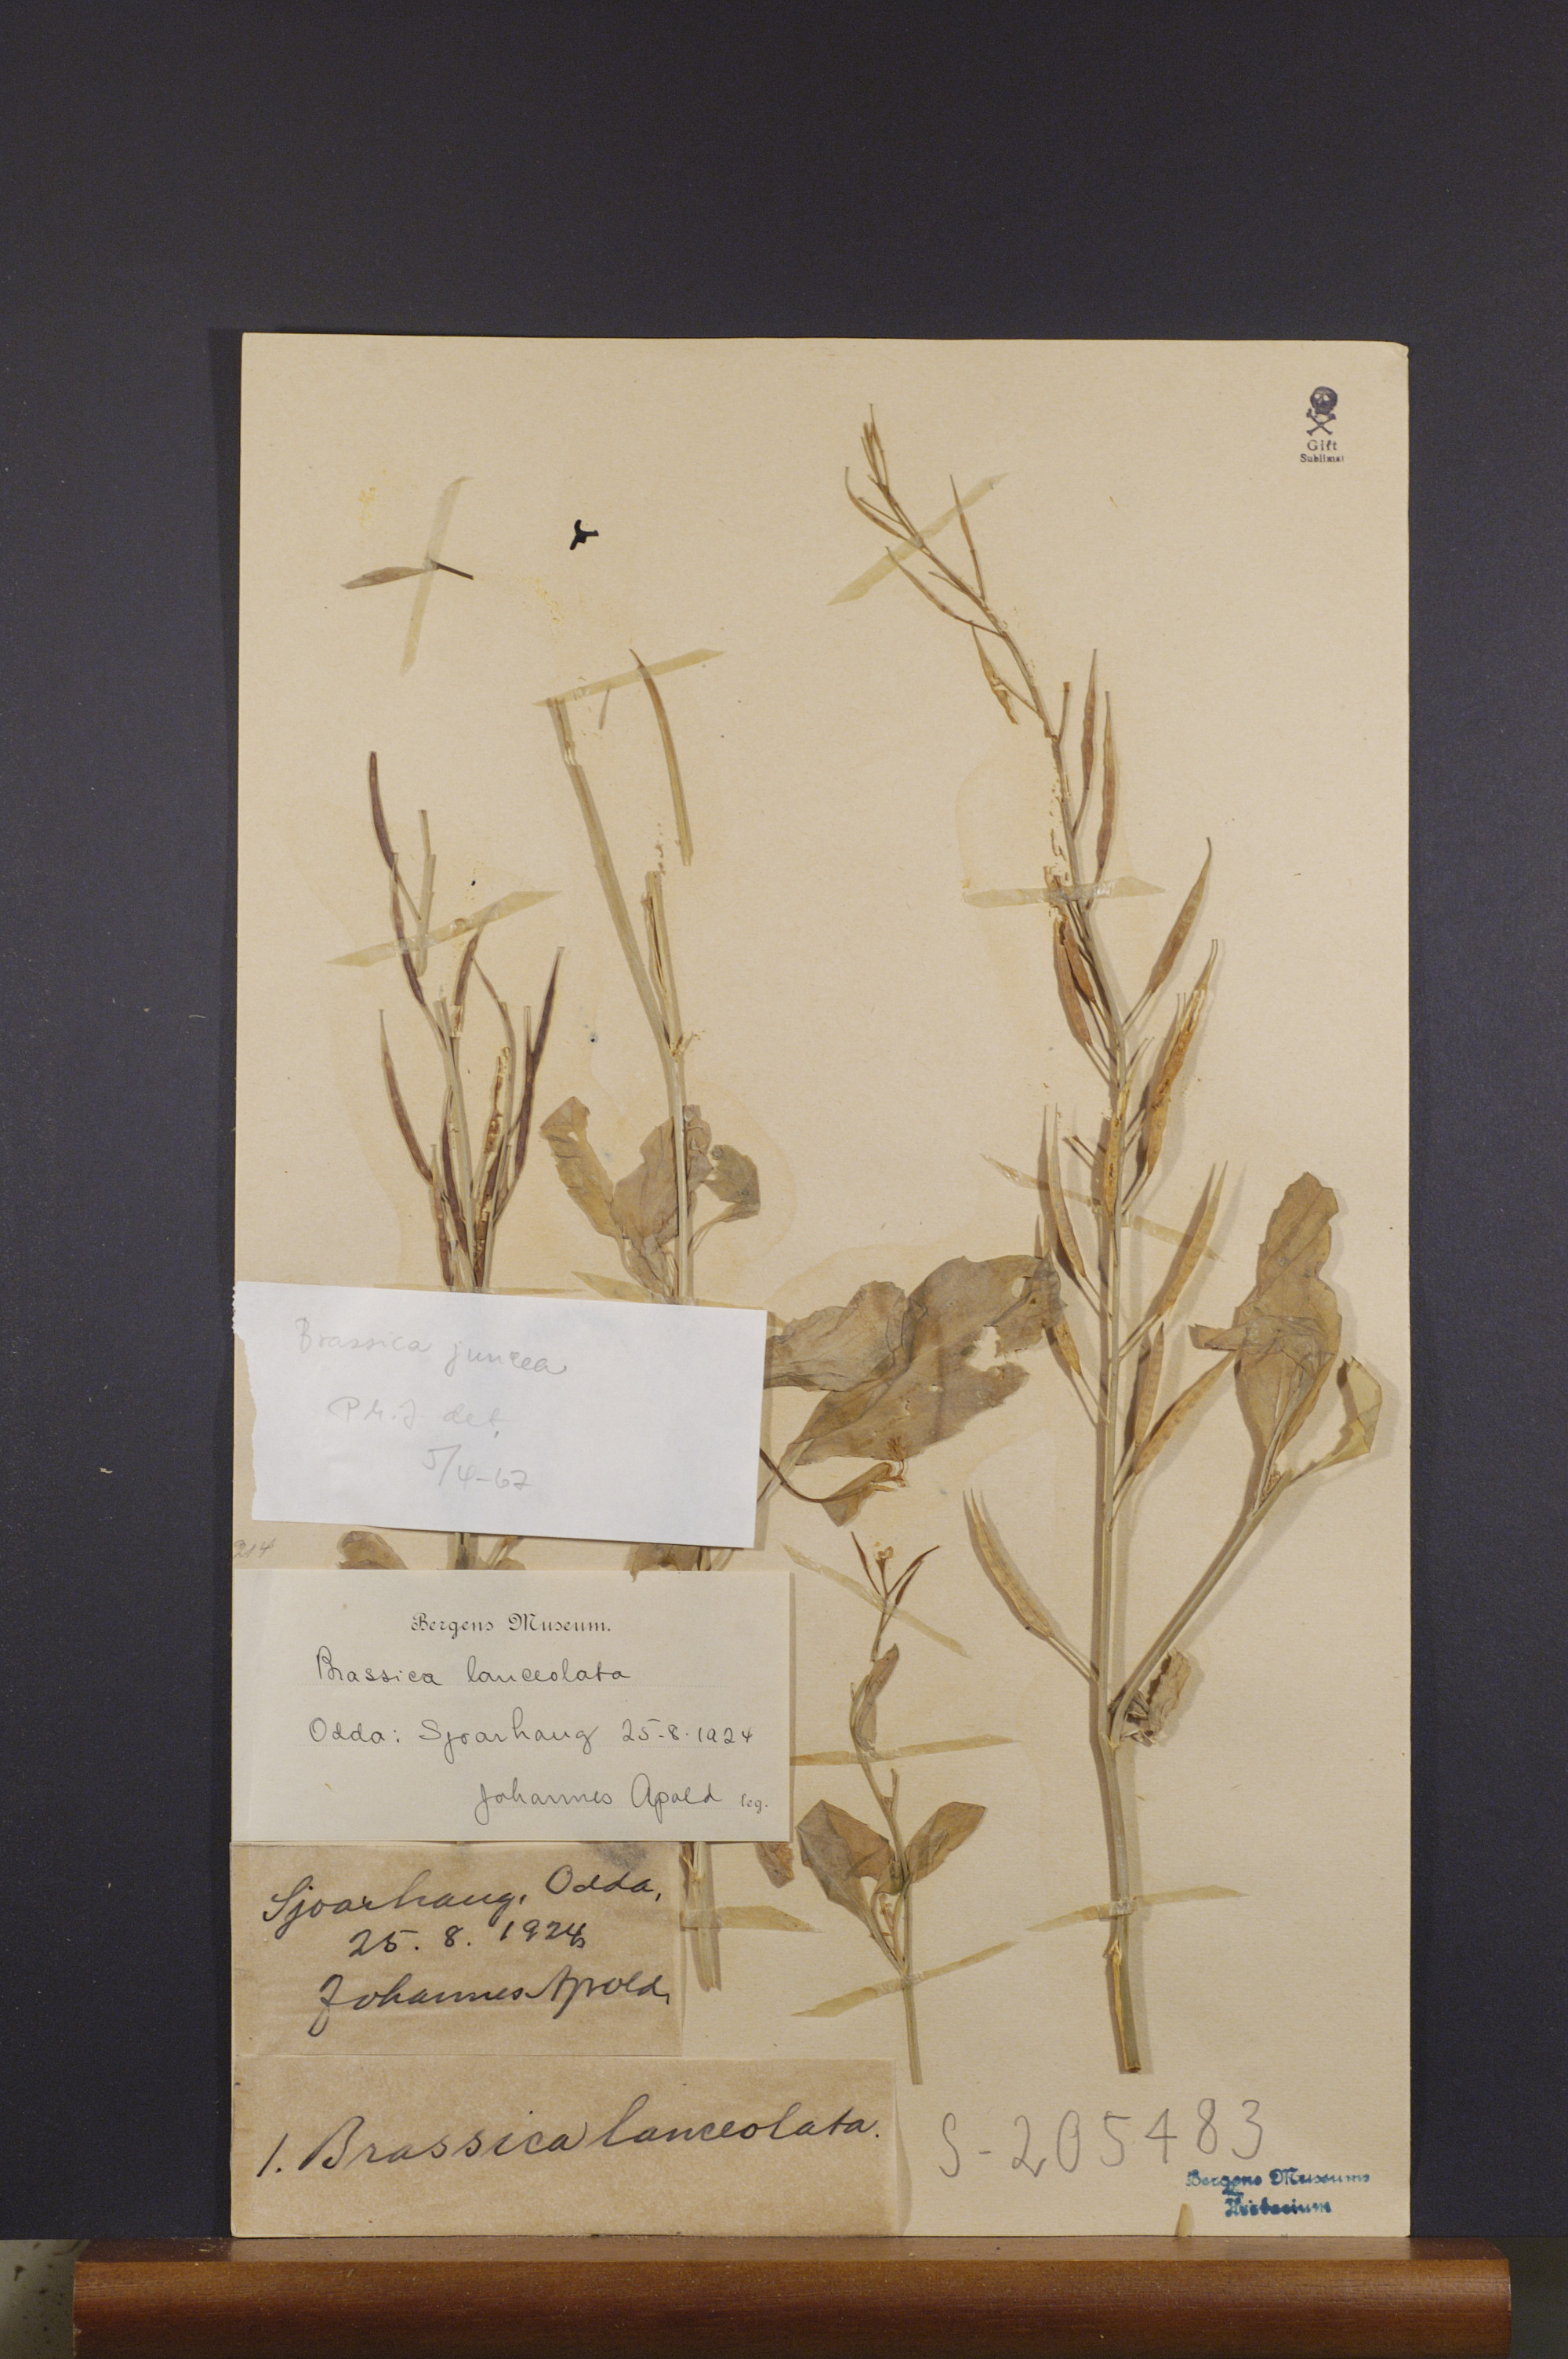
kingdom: Plantae
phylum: Tracheophyta
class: Magnoliopsida
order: Brassicales
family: Brassicaceae
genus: Brassica
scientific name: Brassica juncea
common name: Brown mustard
